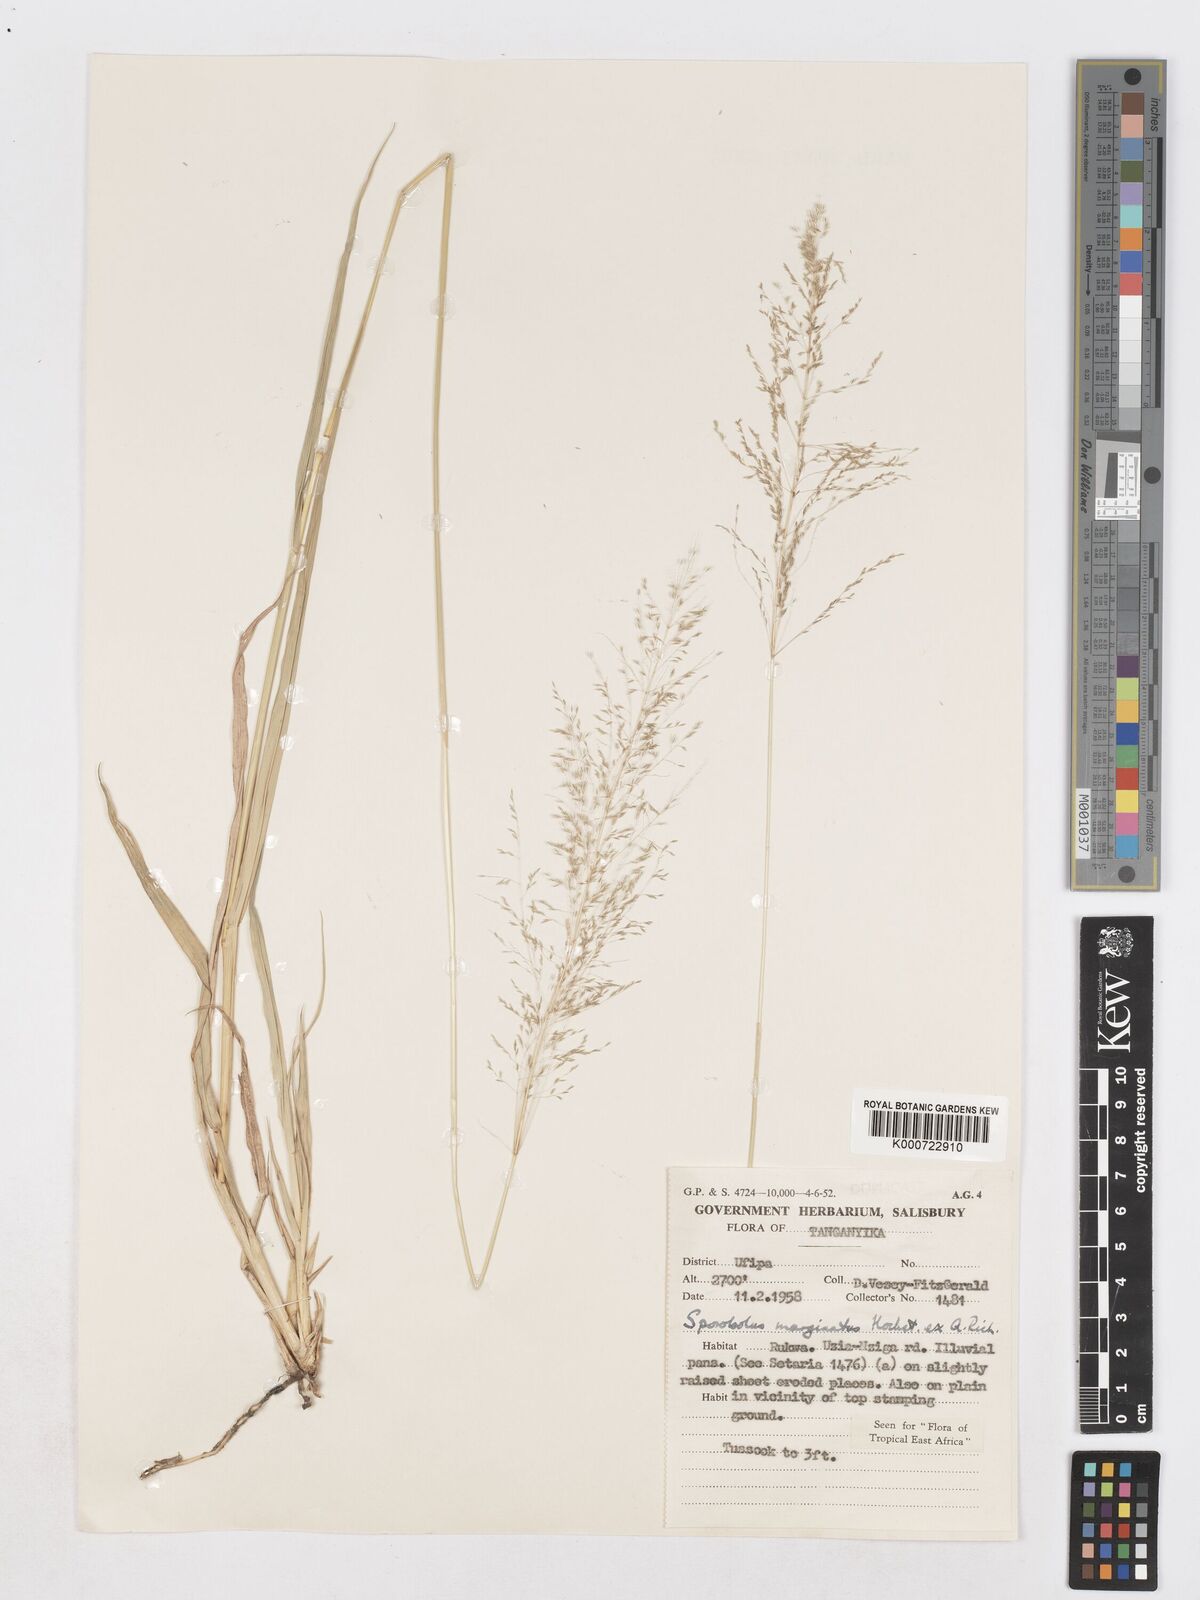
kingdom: Plantae
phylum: Tracheophyta
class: Liliopsida
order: Poales
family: Poaceae
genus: Sporobolus
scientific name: Sporobolus ioclados
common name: Pan dropseed
